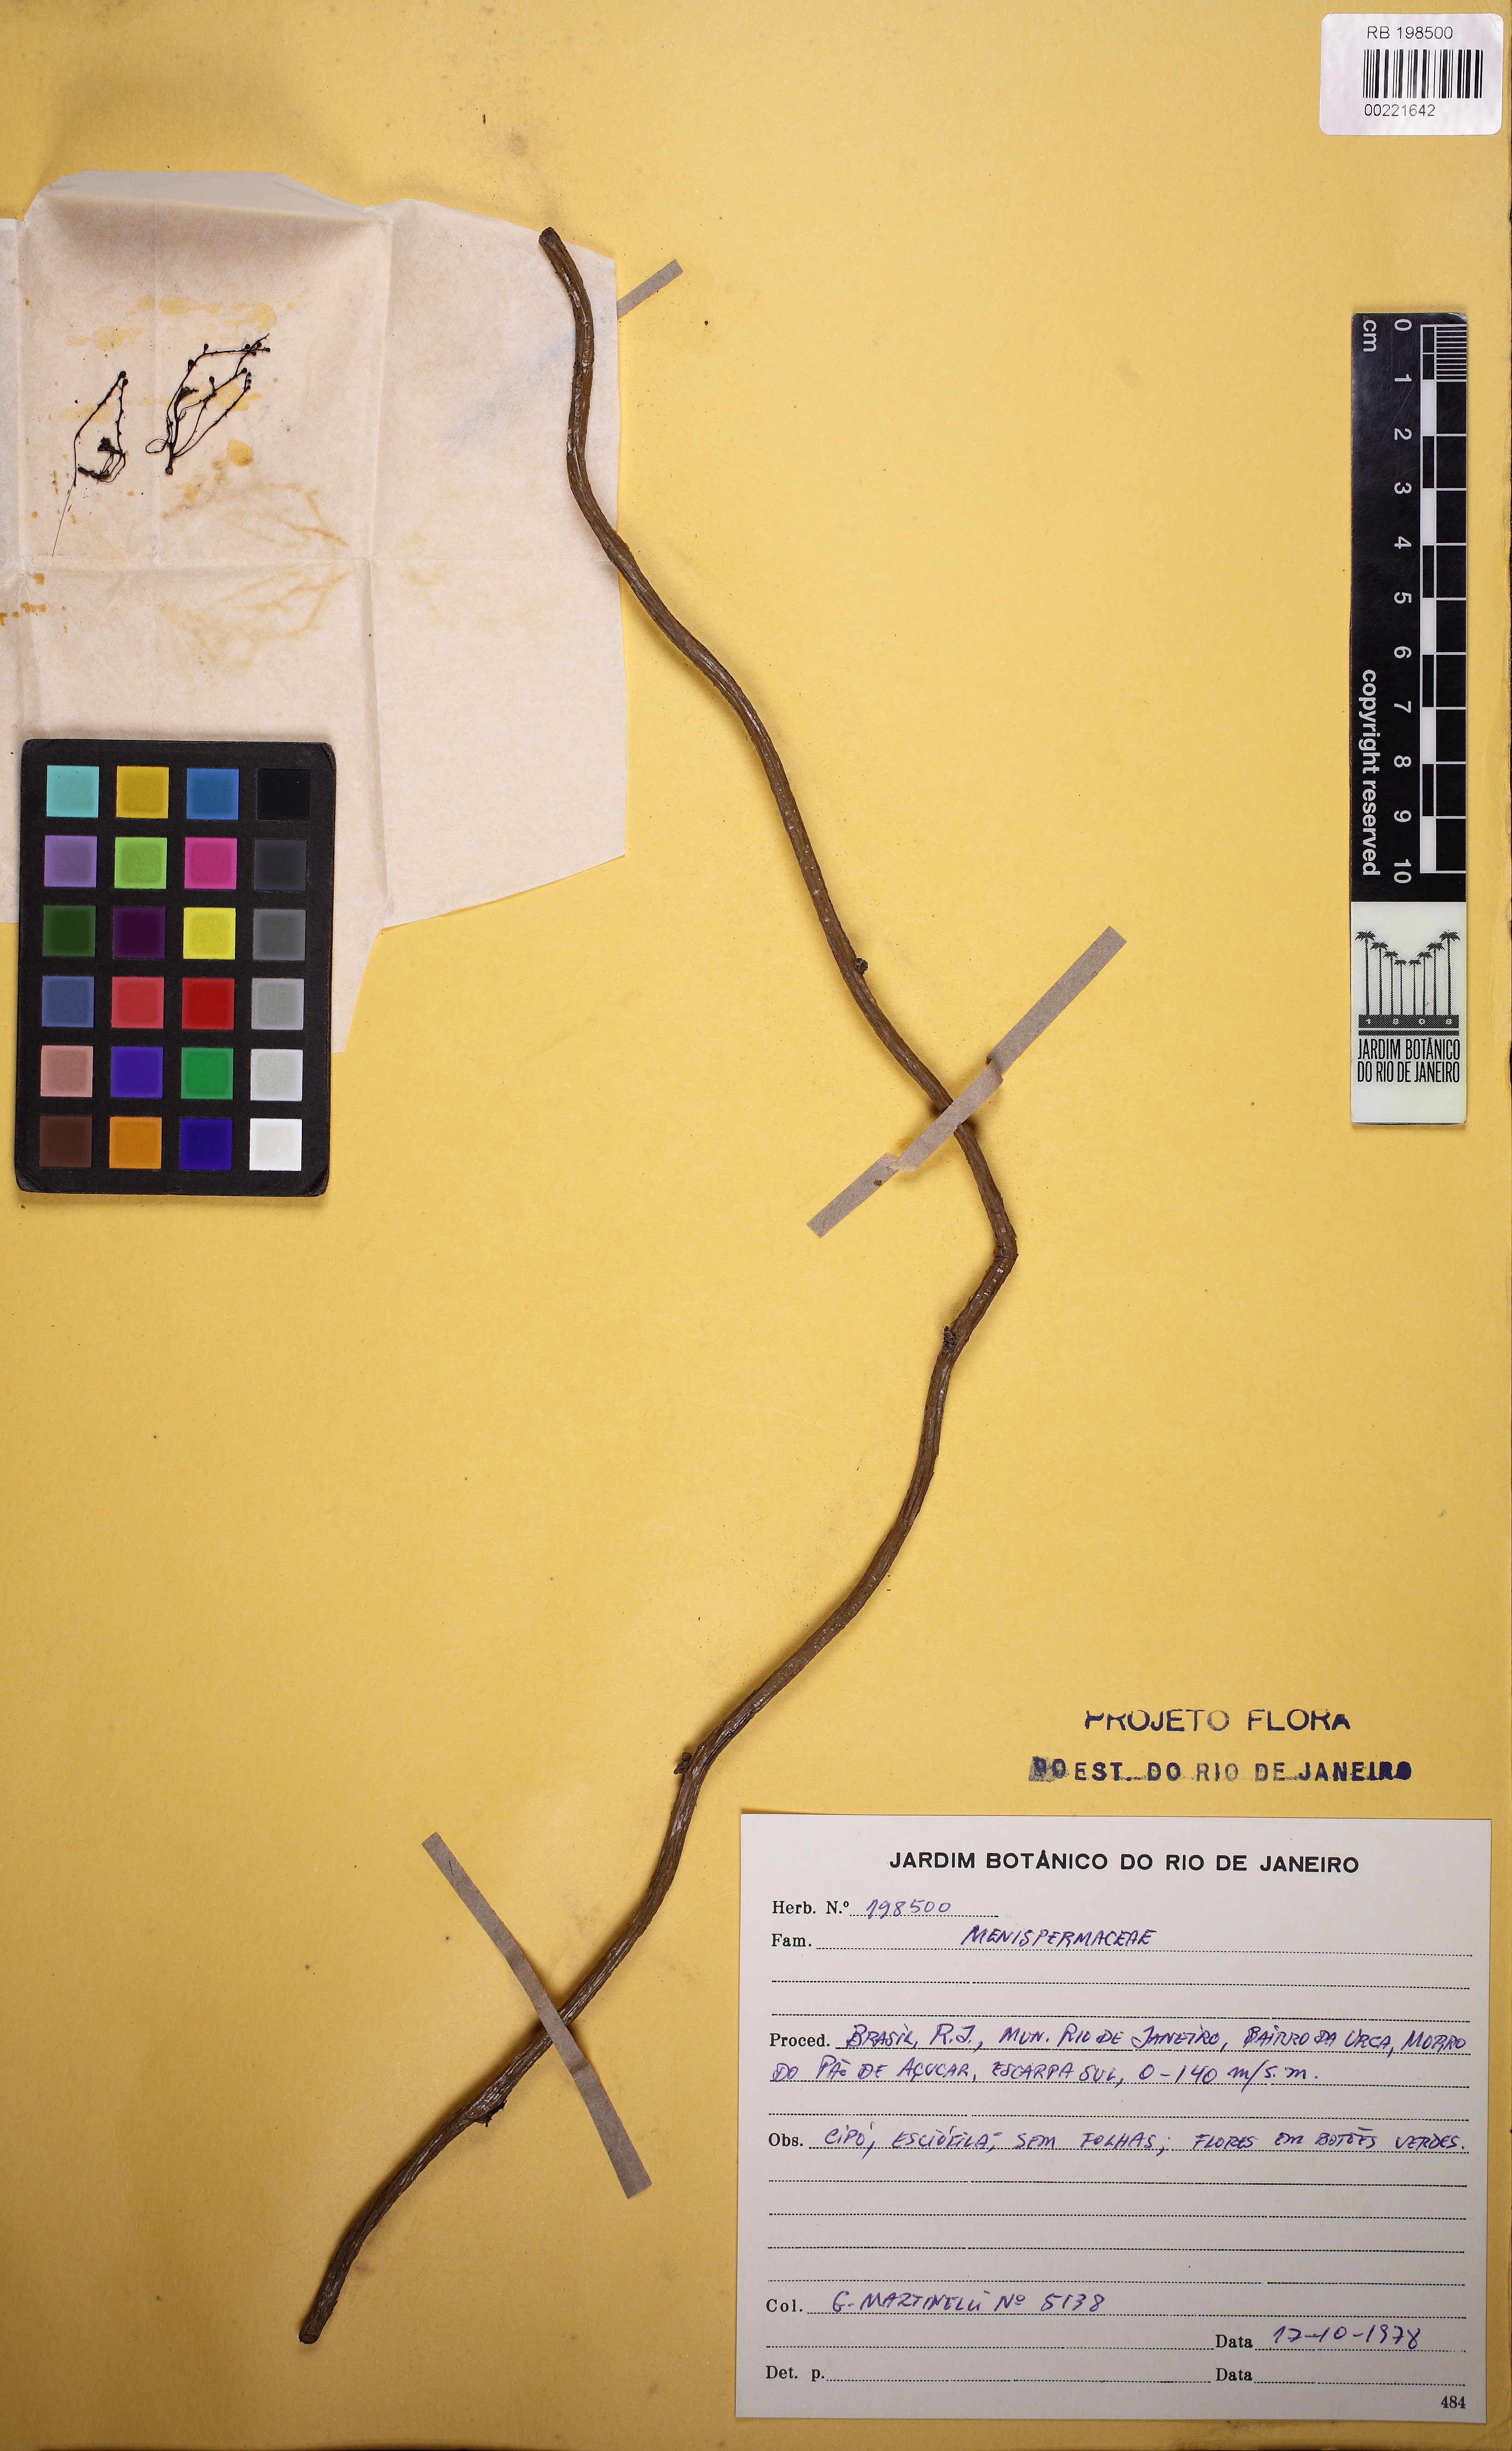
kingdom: Plantae
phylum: Tracheophyta
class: Magnoliopsida
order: Ranunculales
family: Menispermaceae
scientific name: Menispermaceae
